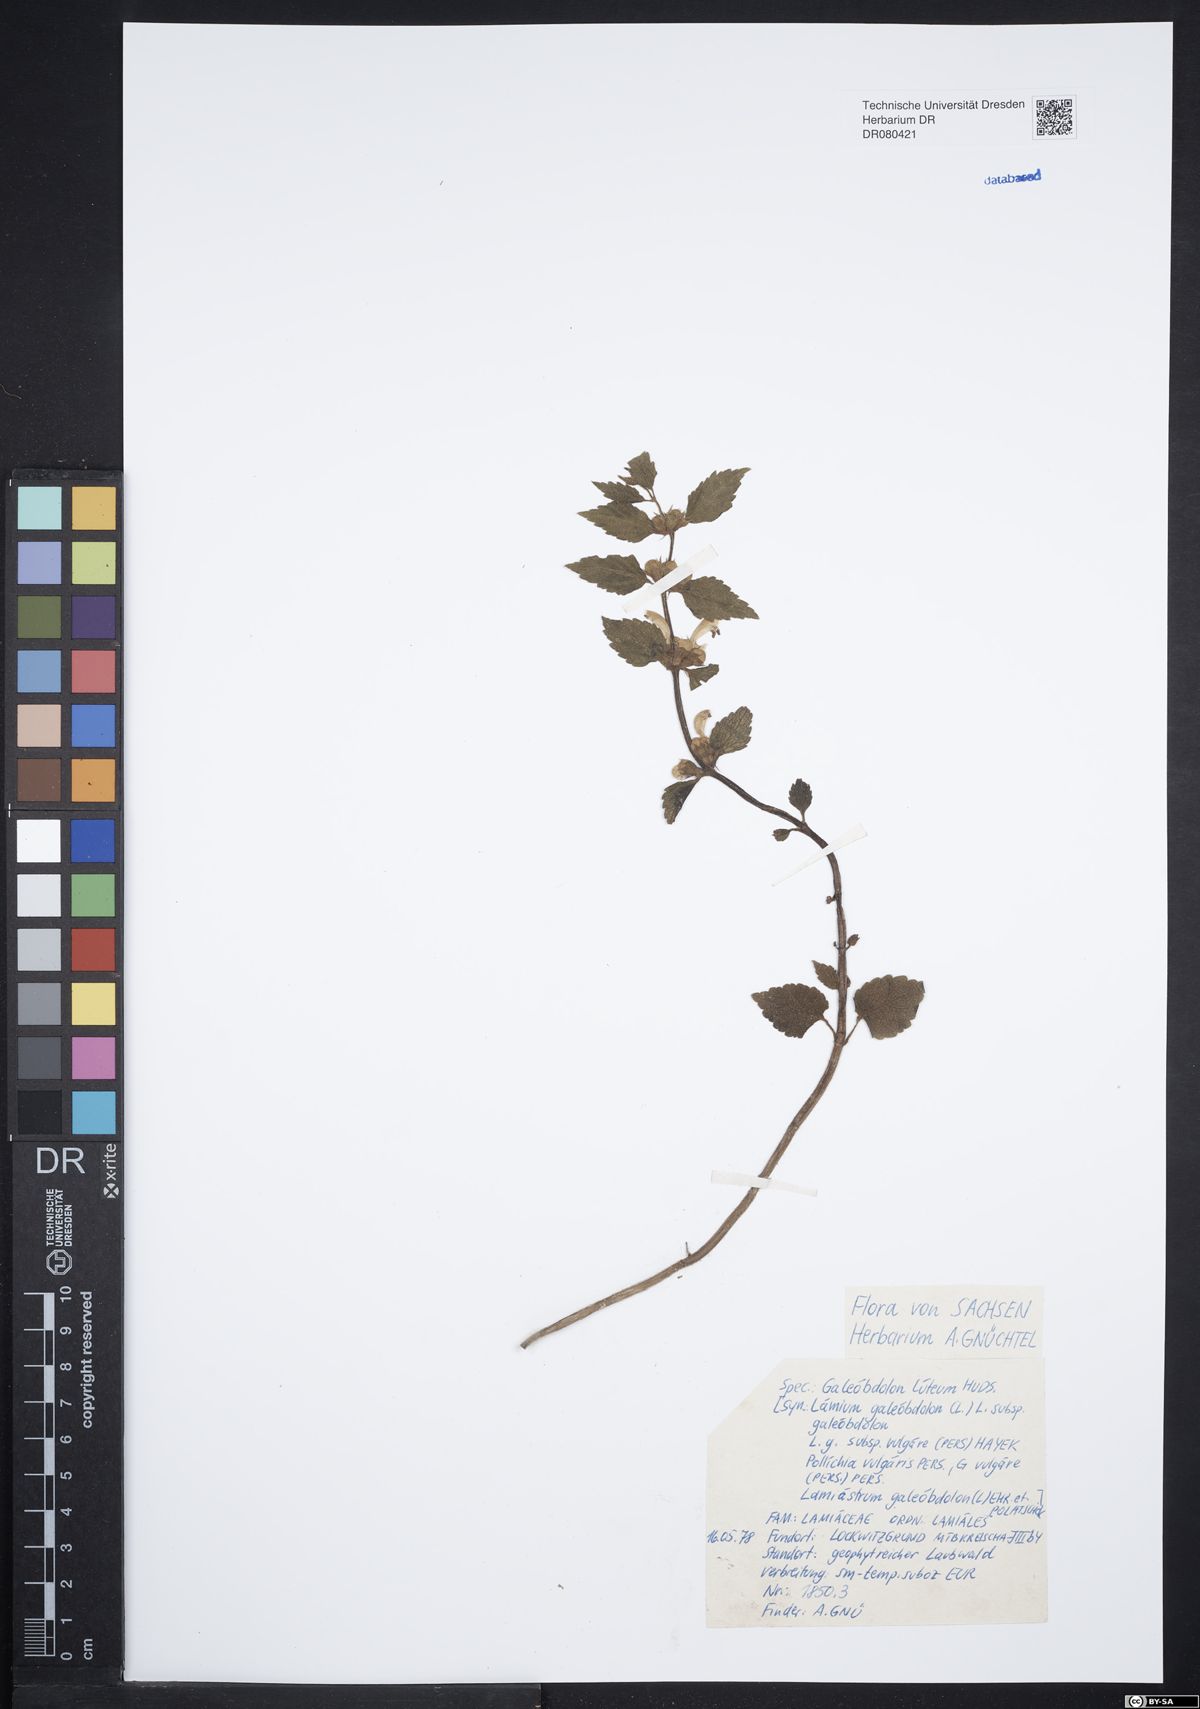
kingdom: Plantae
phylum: Tracheophyta
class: Magnoliopsida
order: Lamiales
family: Lamiaceae
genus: Lamium
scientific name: Lamium galeobdolon
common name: Yellow archangel
